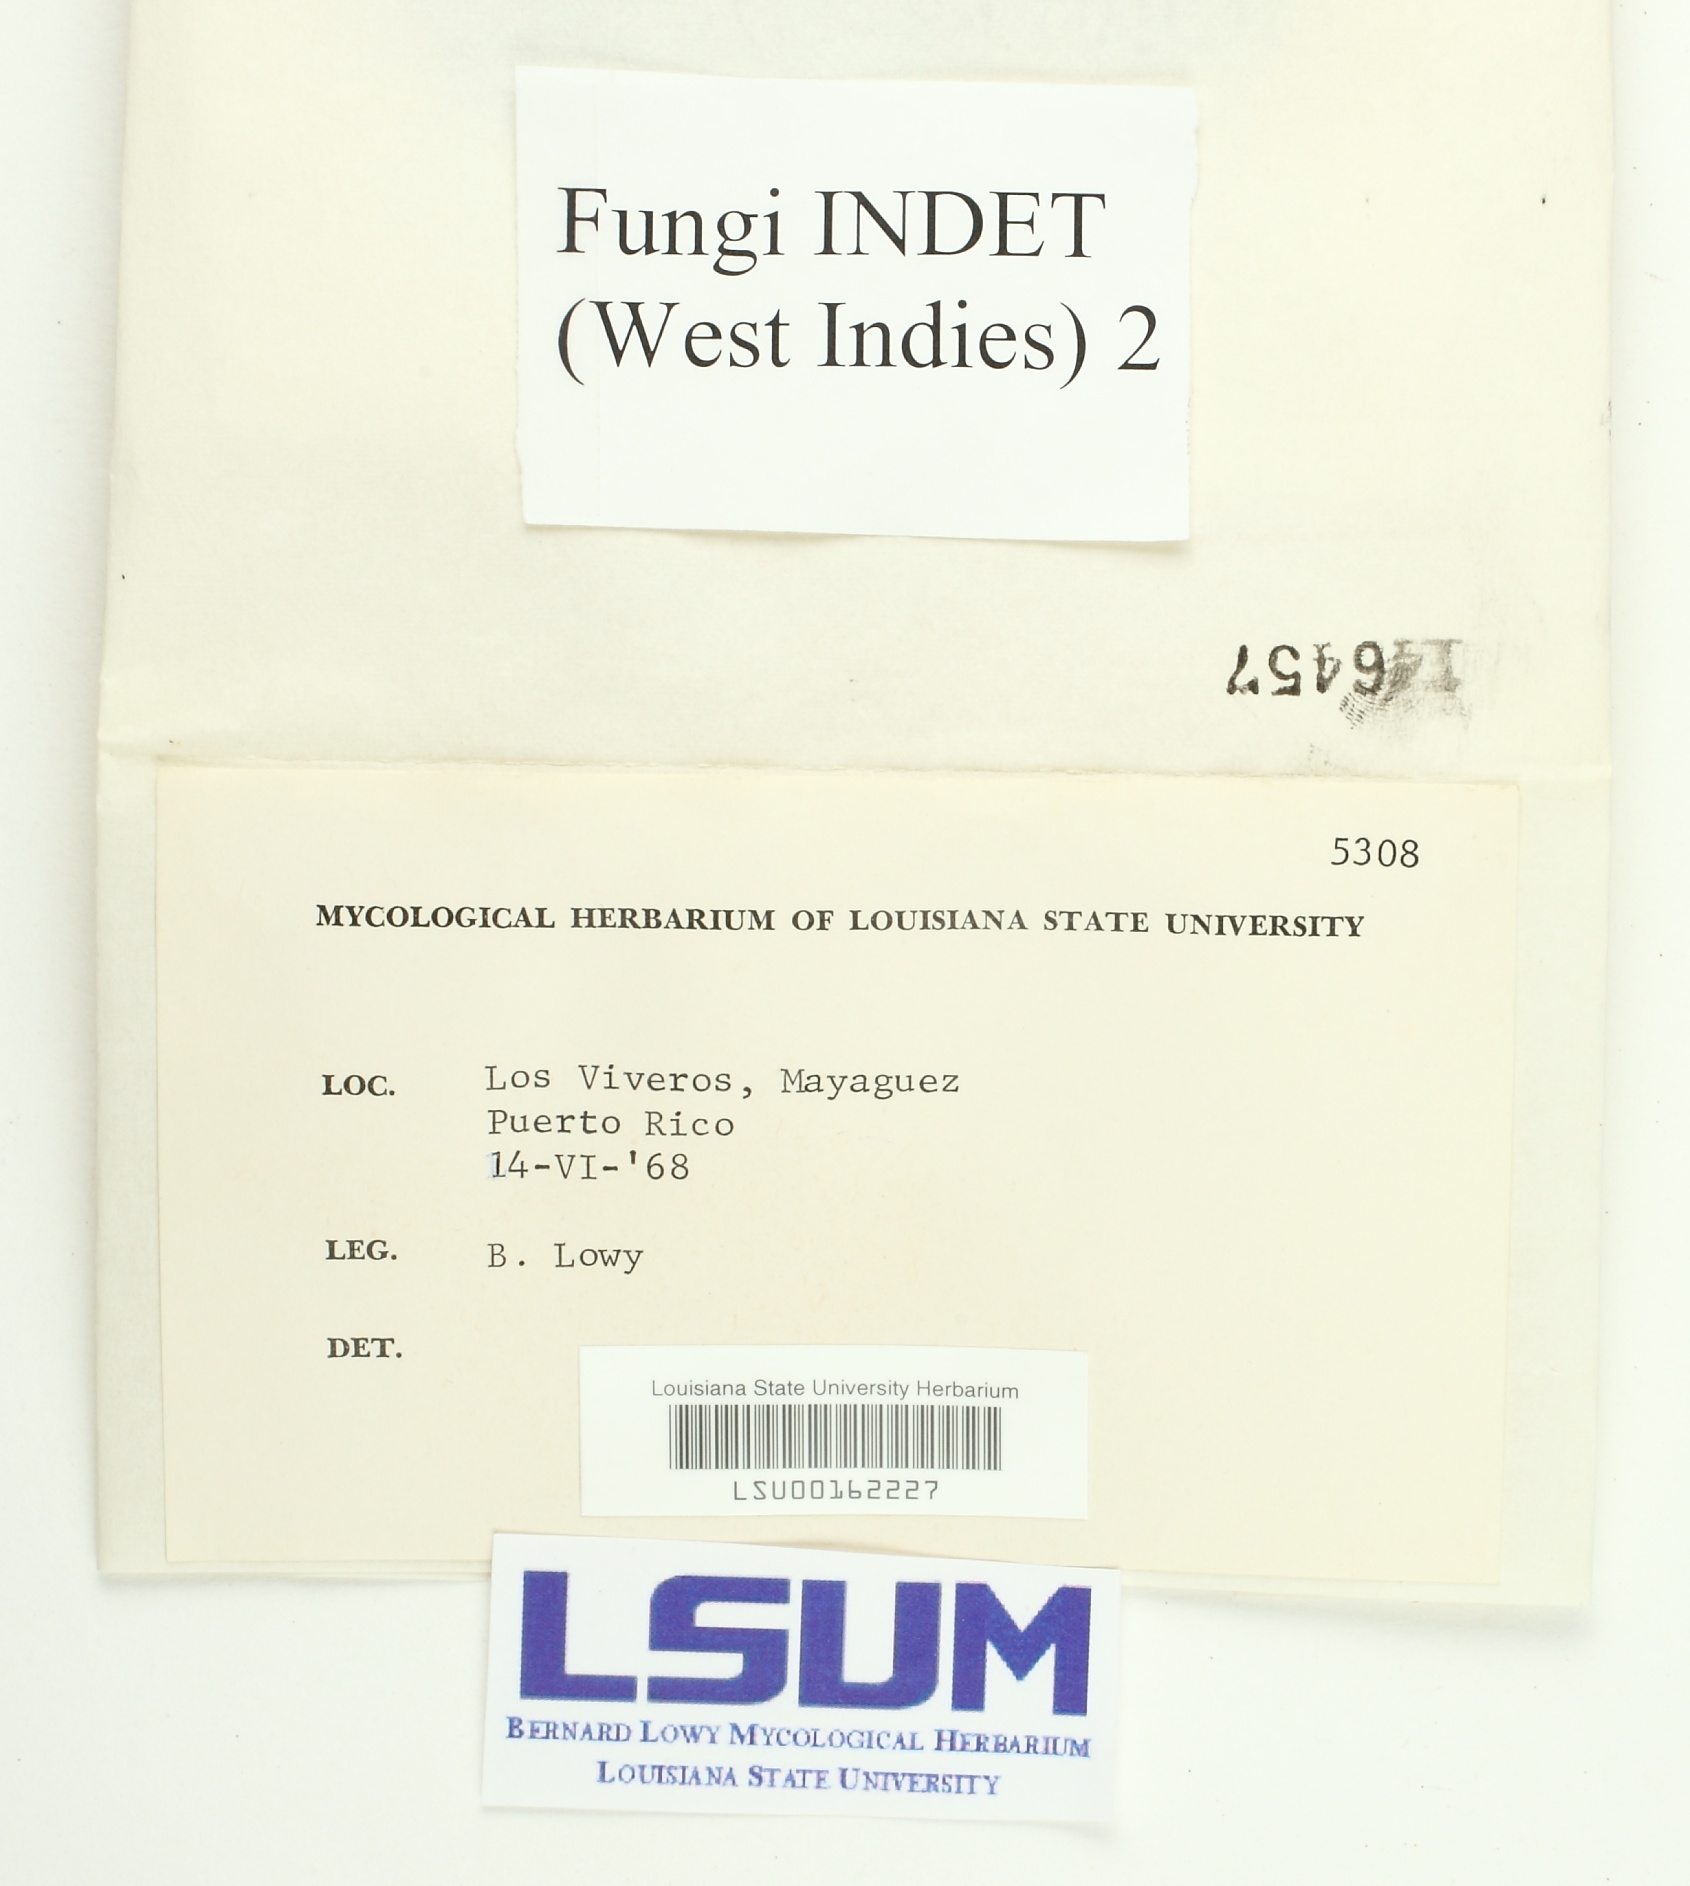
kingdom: Fungi
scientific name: Fungi
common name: Fungi
